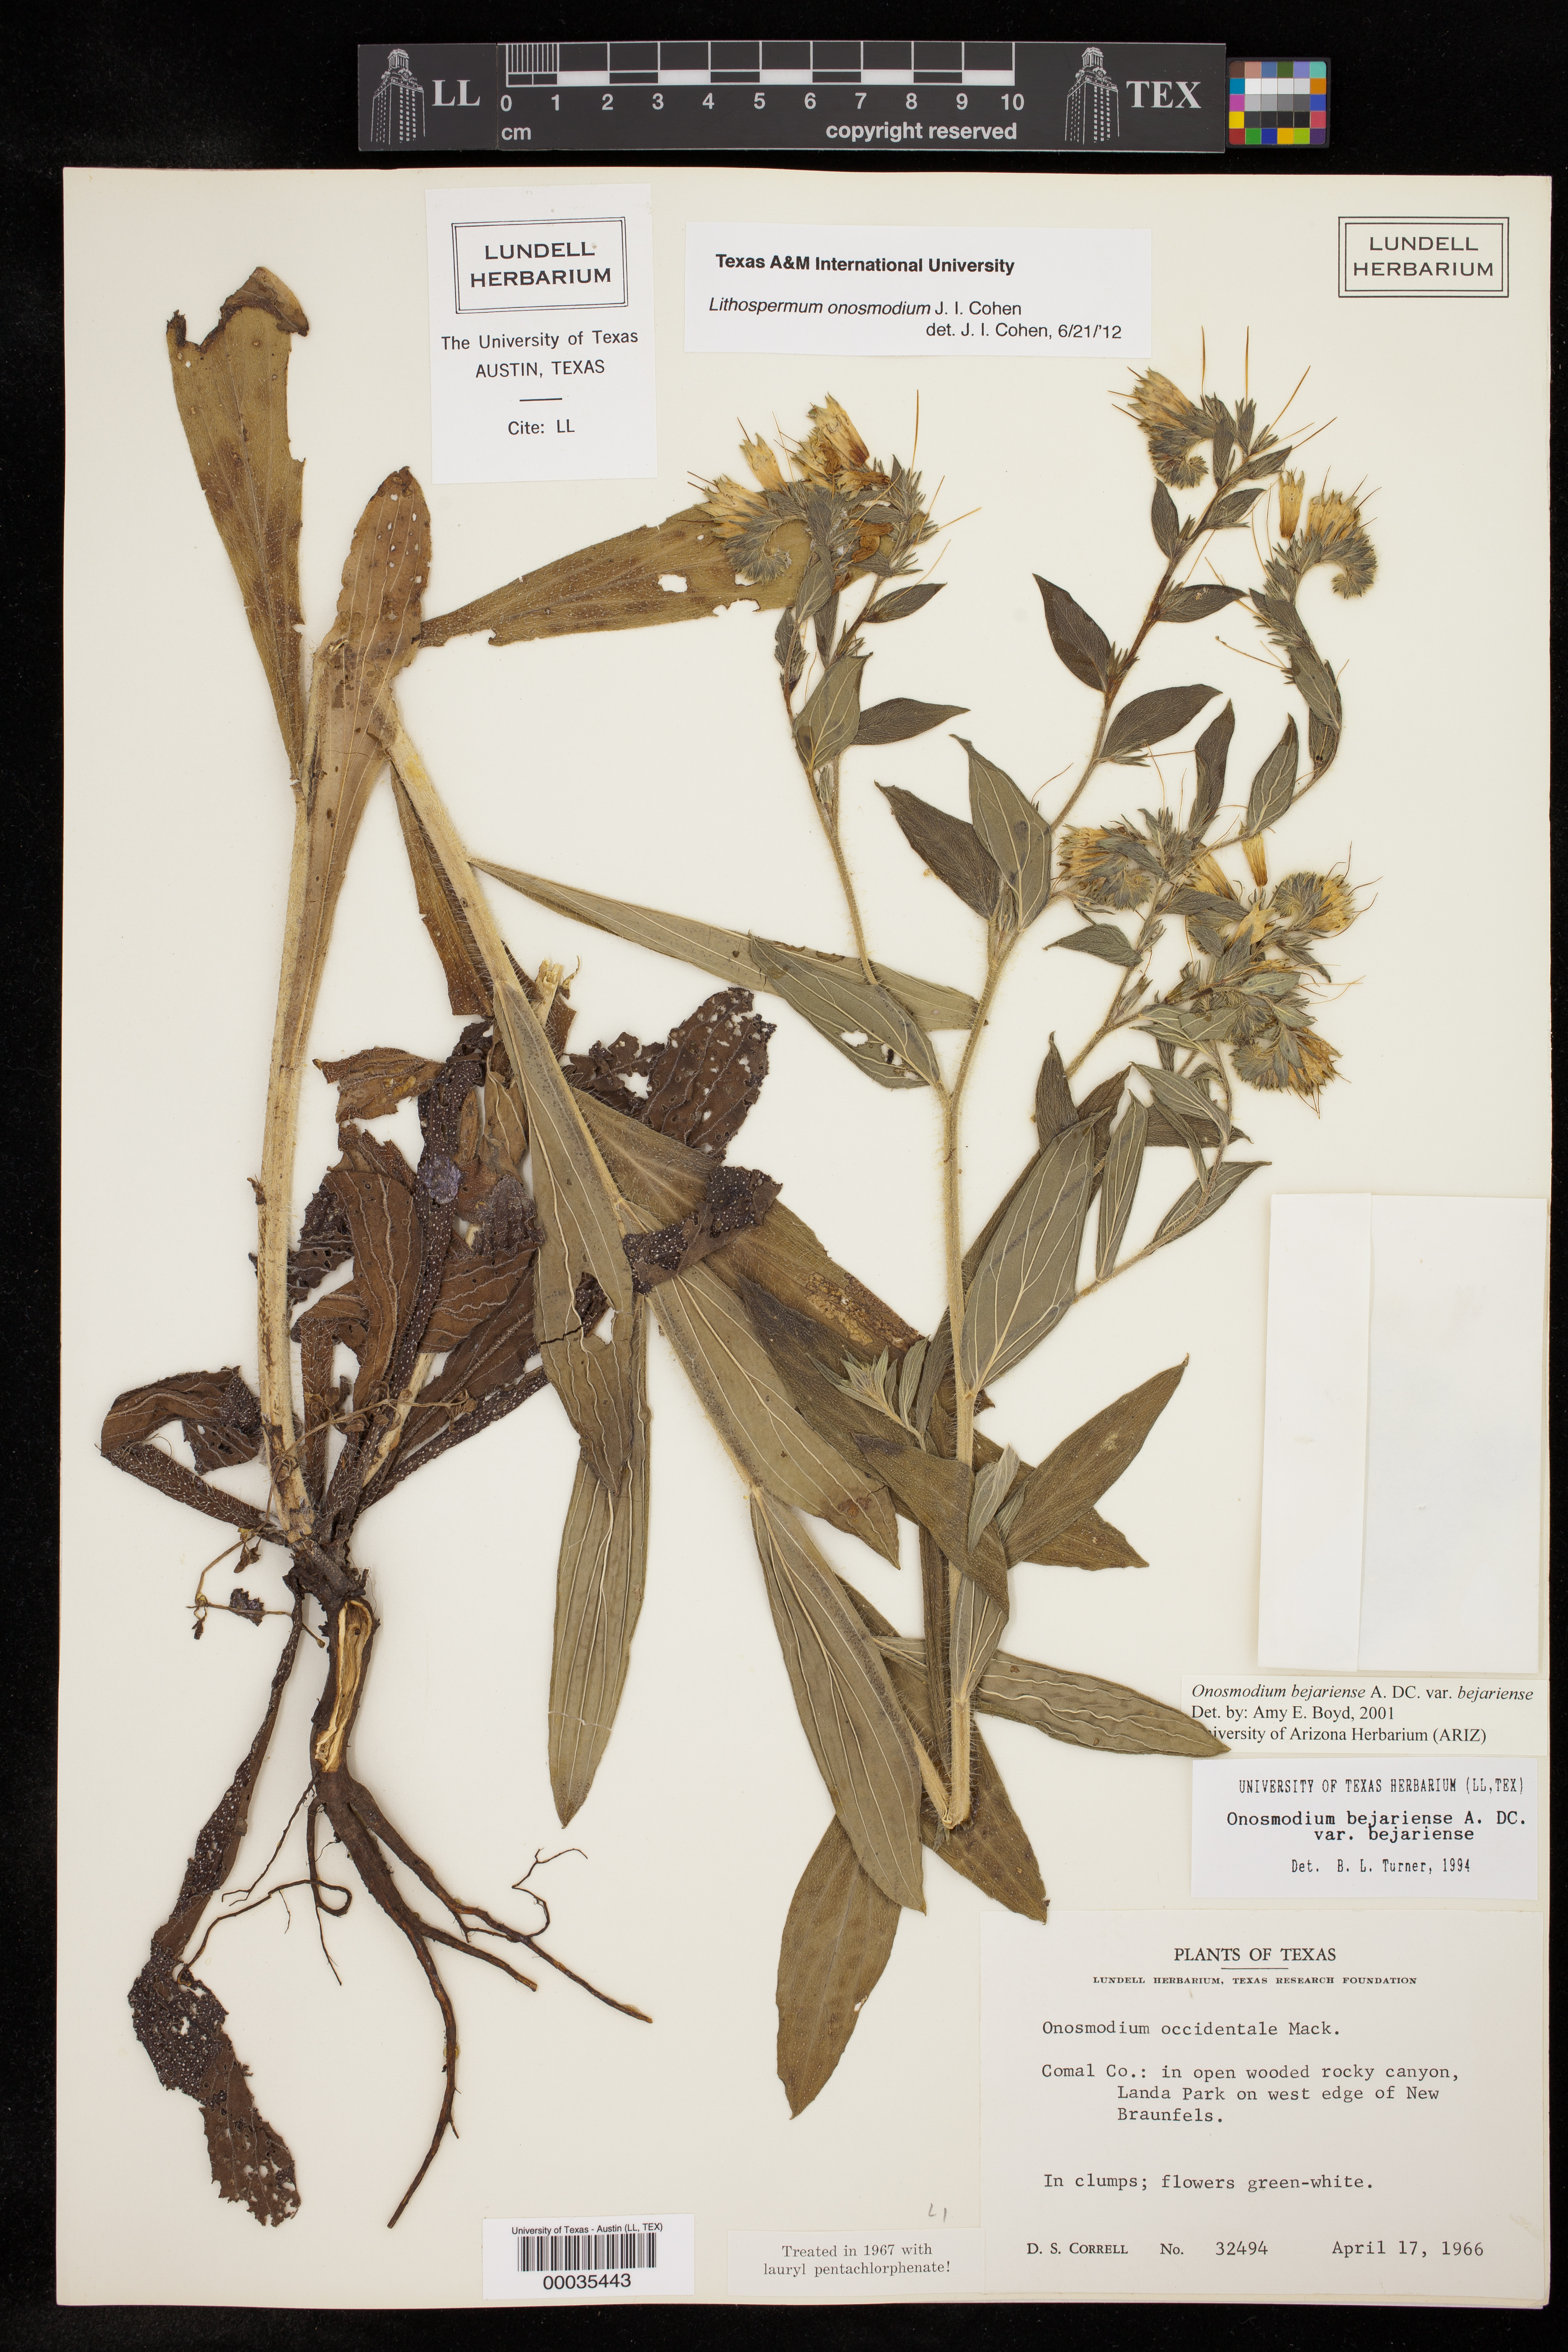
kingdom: Plantae
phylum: Tracheophyta
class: Magnoliopsida
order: Boraginales
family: Boraginaceae
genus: Lithospermum
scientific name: Lithospermum molle
